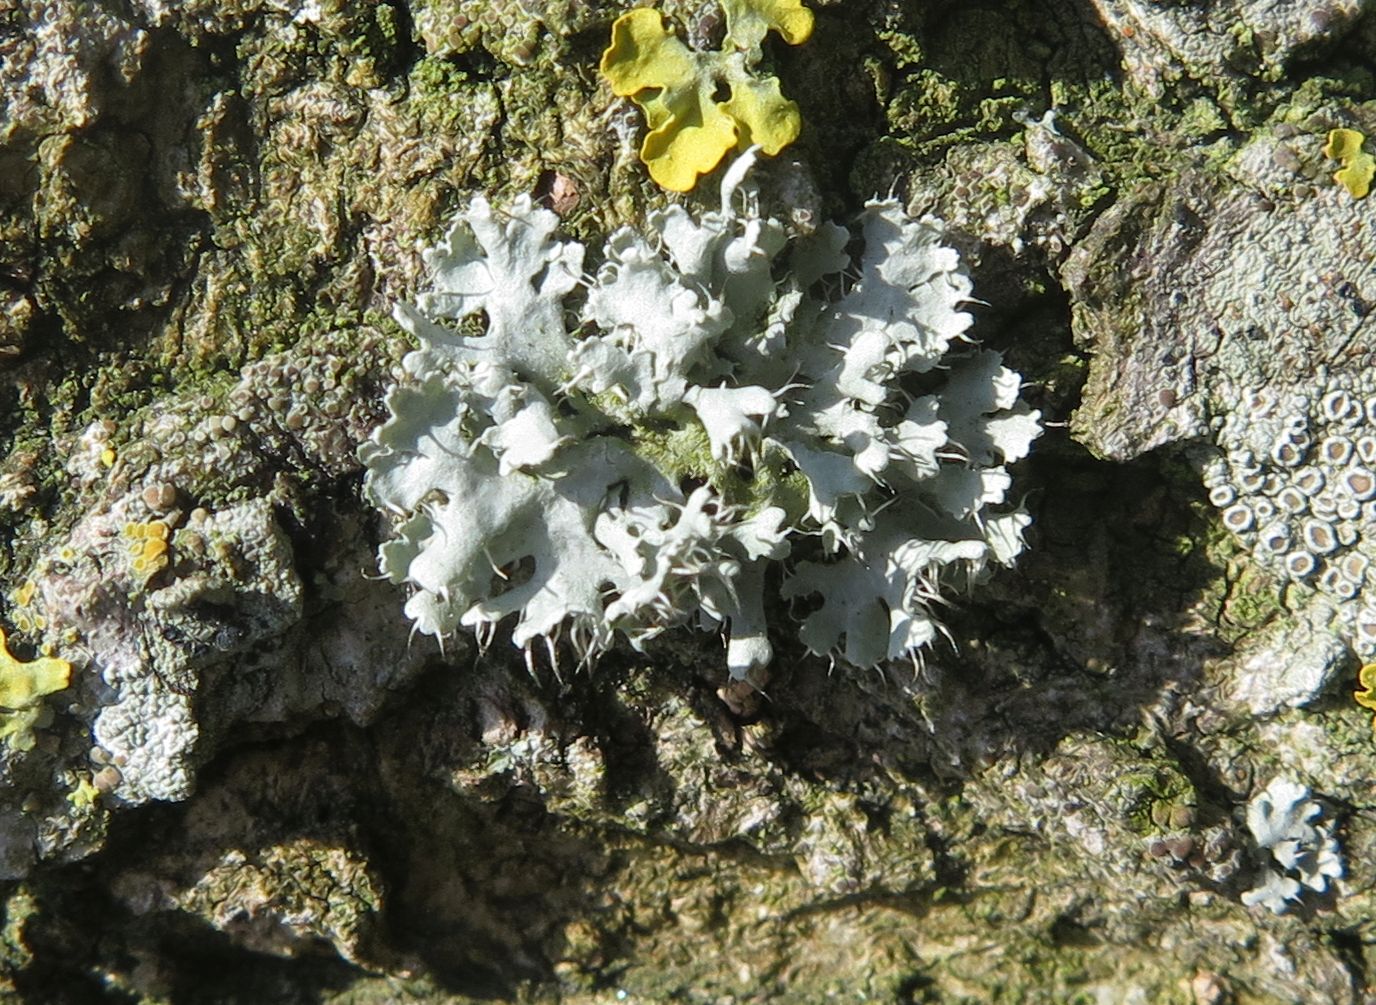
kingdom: Fungi
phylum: Ascomycota
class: Lecanoromycetes
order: Caliciales
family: Physciaceae
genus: Physcia
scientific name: Physcia tenella
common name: spæd rosetlav
